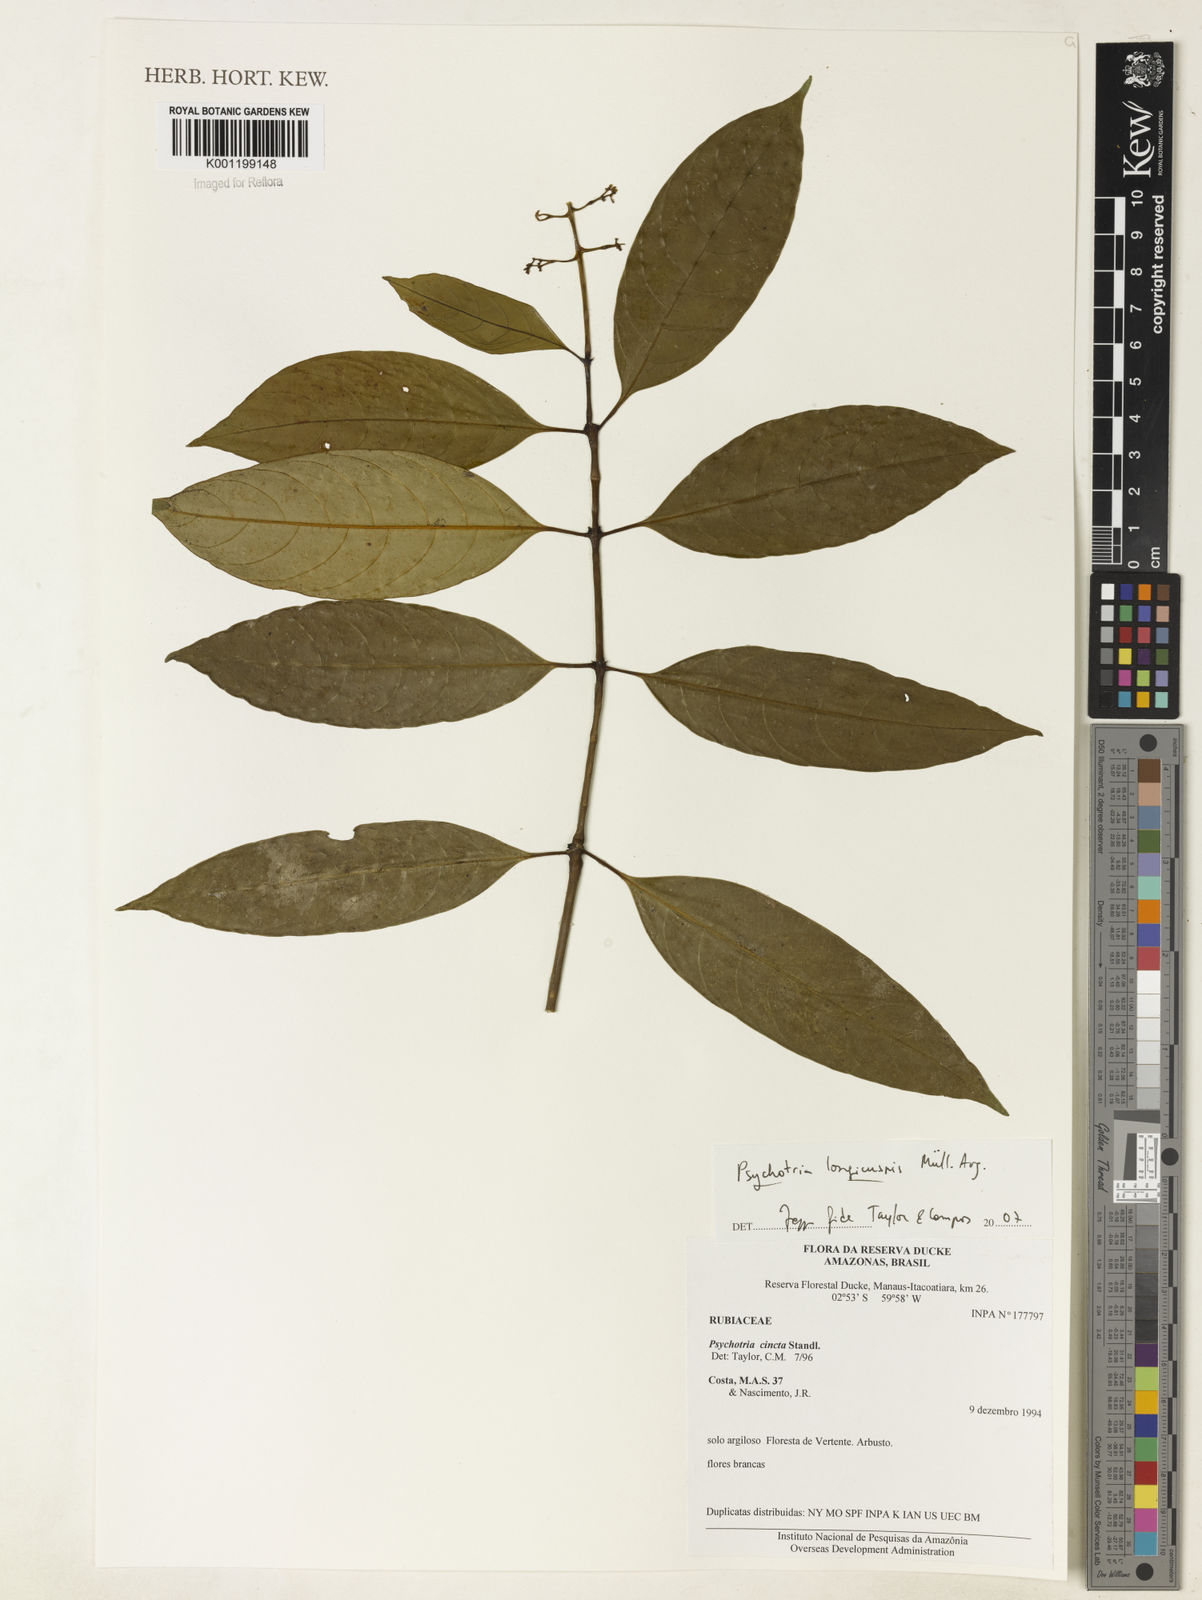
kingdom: Plantae
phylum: Tracheophyta
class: Magnoliopsida
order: Gentianales
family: Rubiaceae
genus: Psychotria
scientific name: Psychotria
